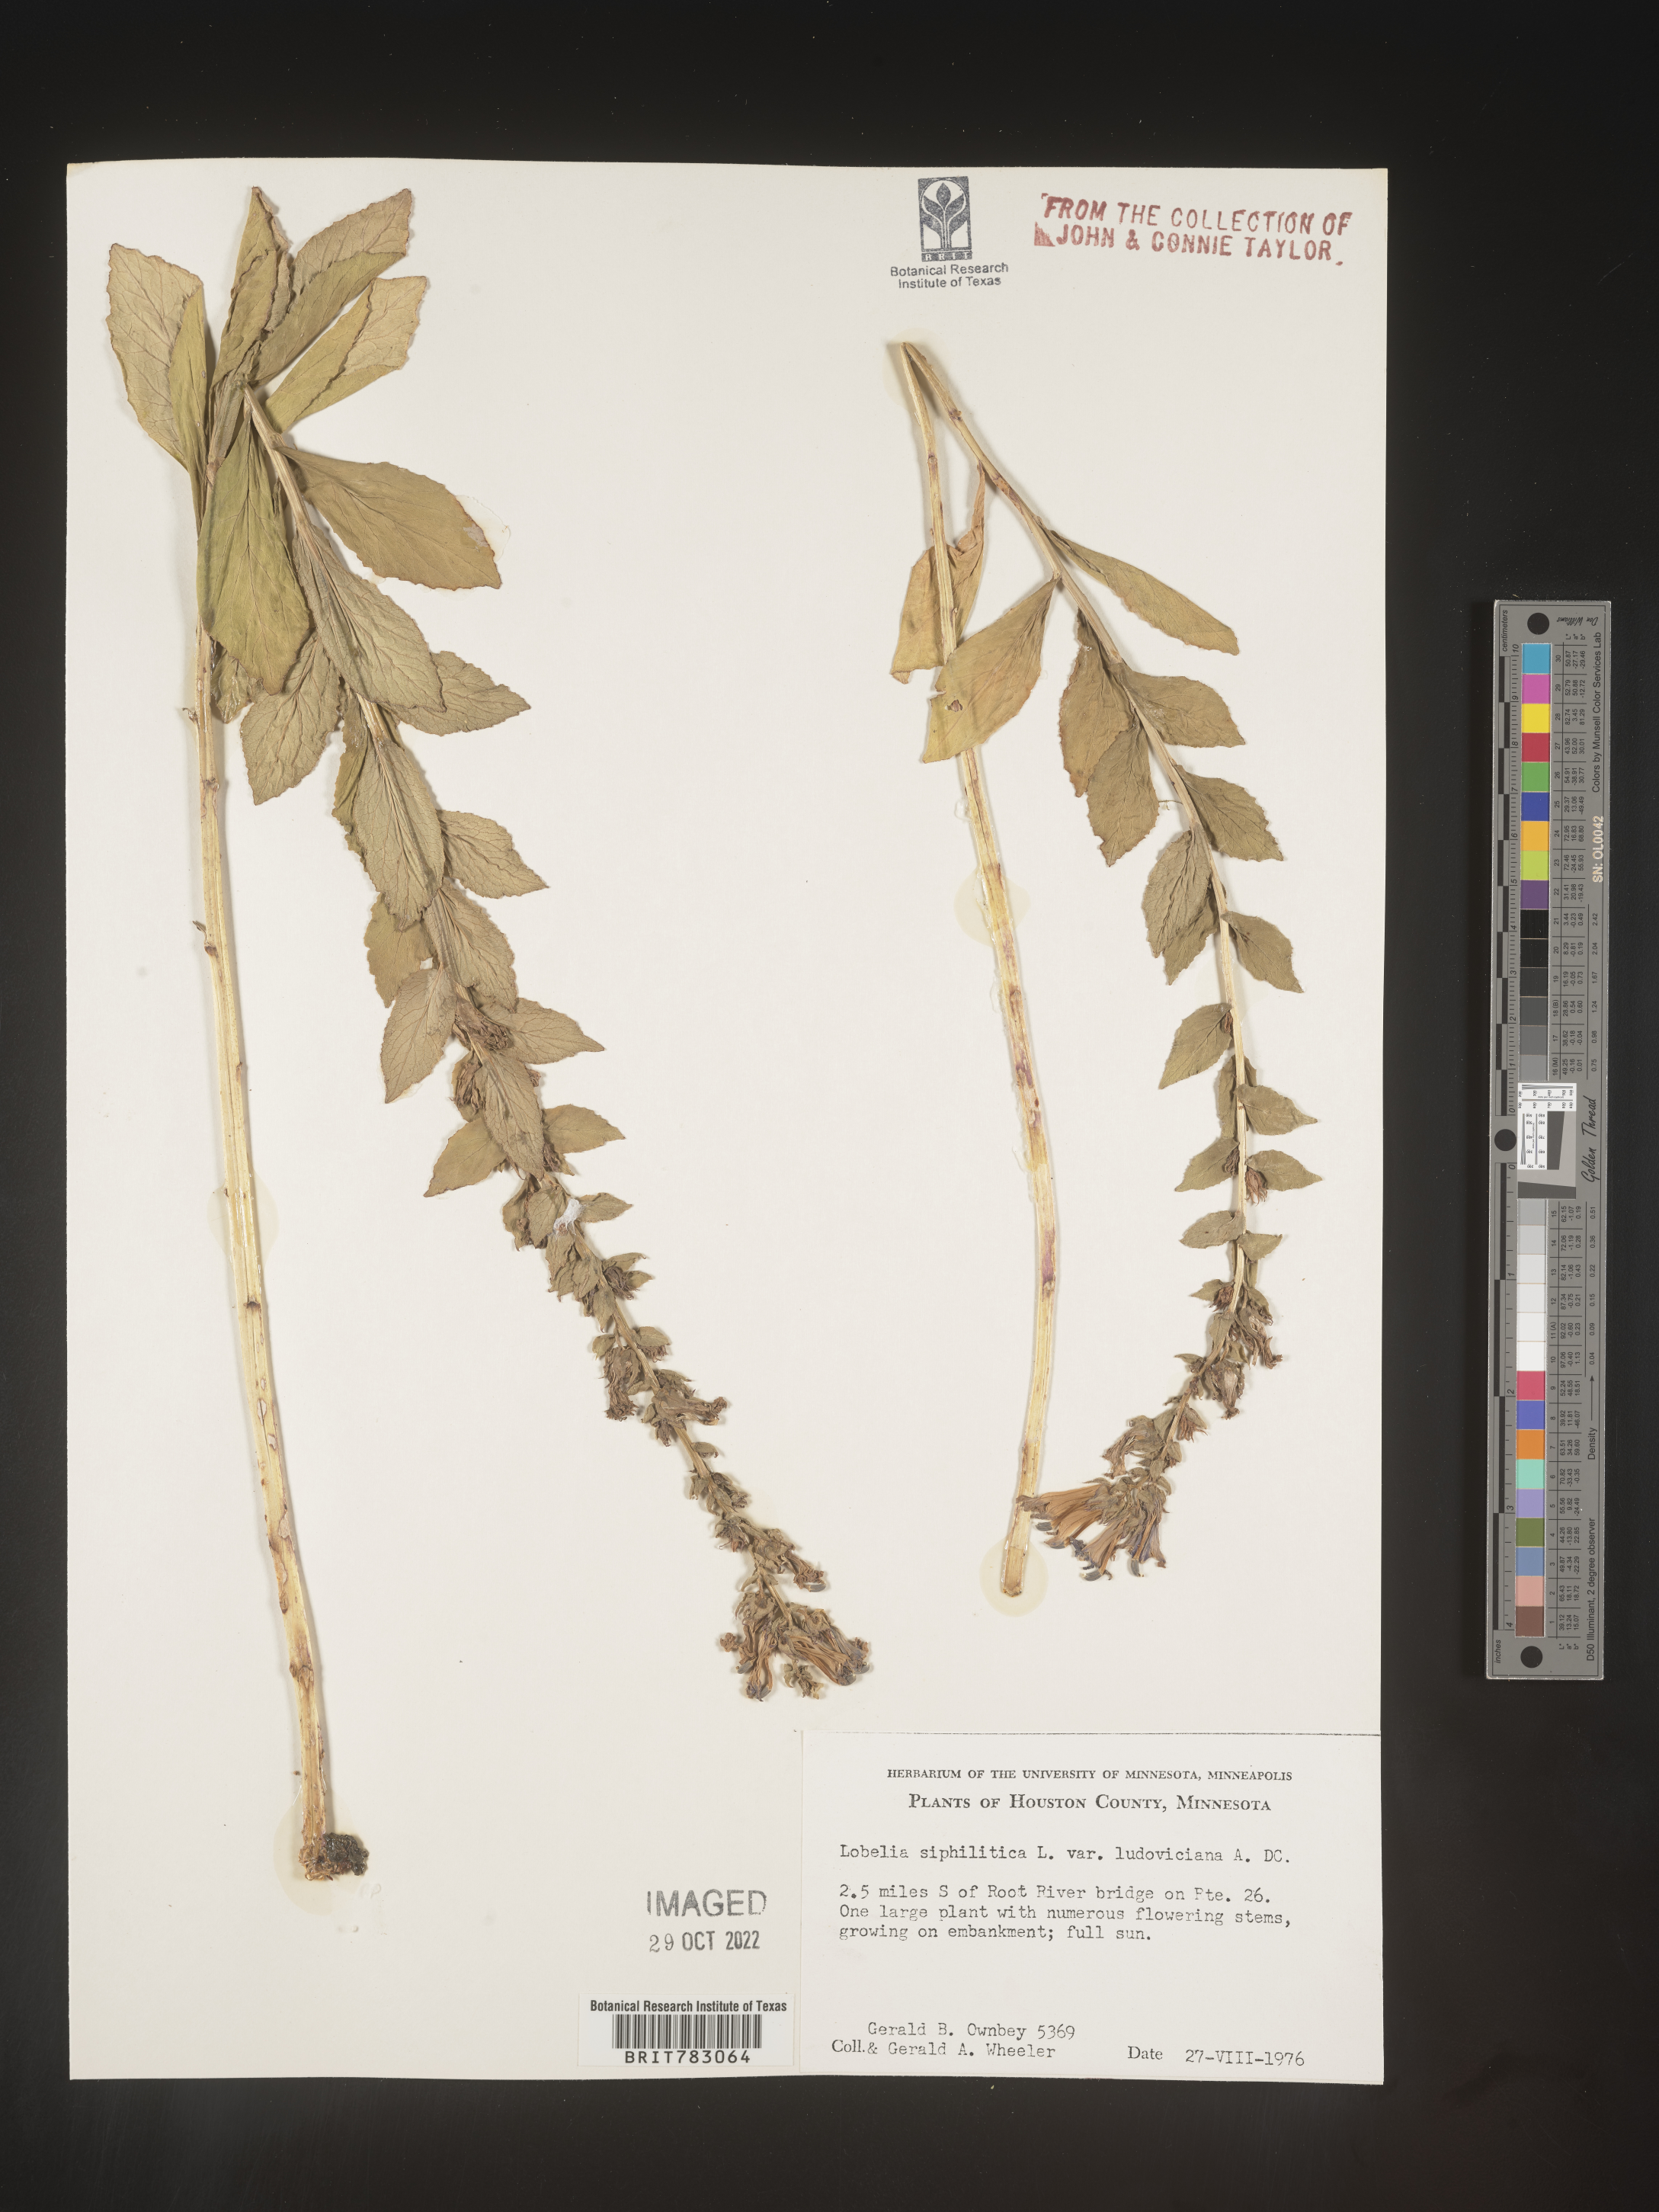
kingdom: Plantae
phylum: Tracheophyta
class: Magnoliopsida
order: Asterales
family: Campanulaceae
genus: Lobelia
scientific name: Lobelia siphilitica
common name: Great lobelia
